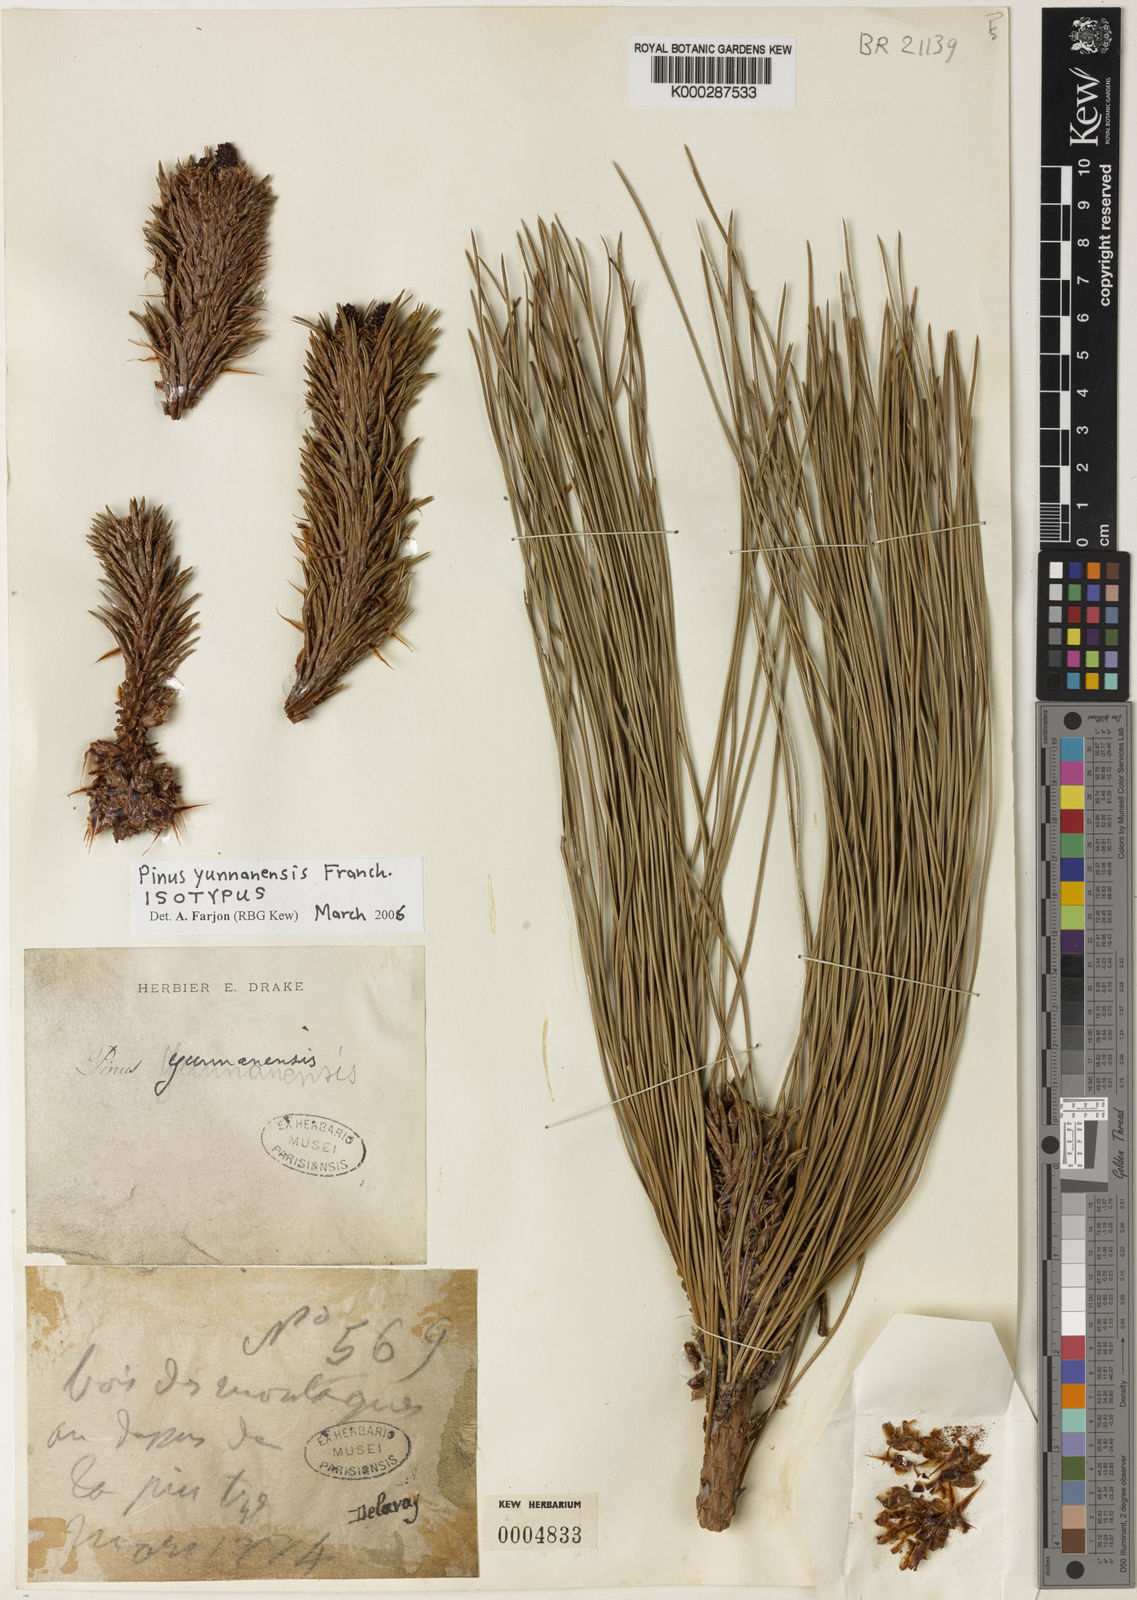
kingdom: Plantae
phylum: Tracheophyta
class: Pinopsida
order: Pinales
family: Pinaceae
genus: Pinus
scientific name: Pinus yunnanensis
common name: Yunnan pine
